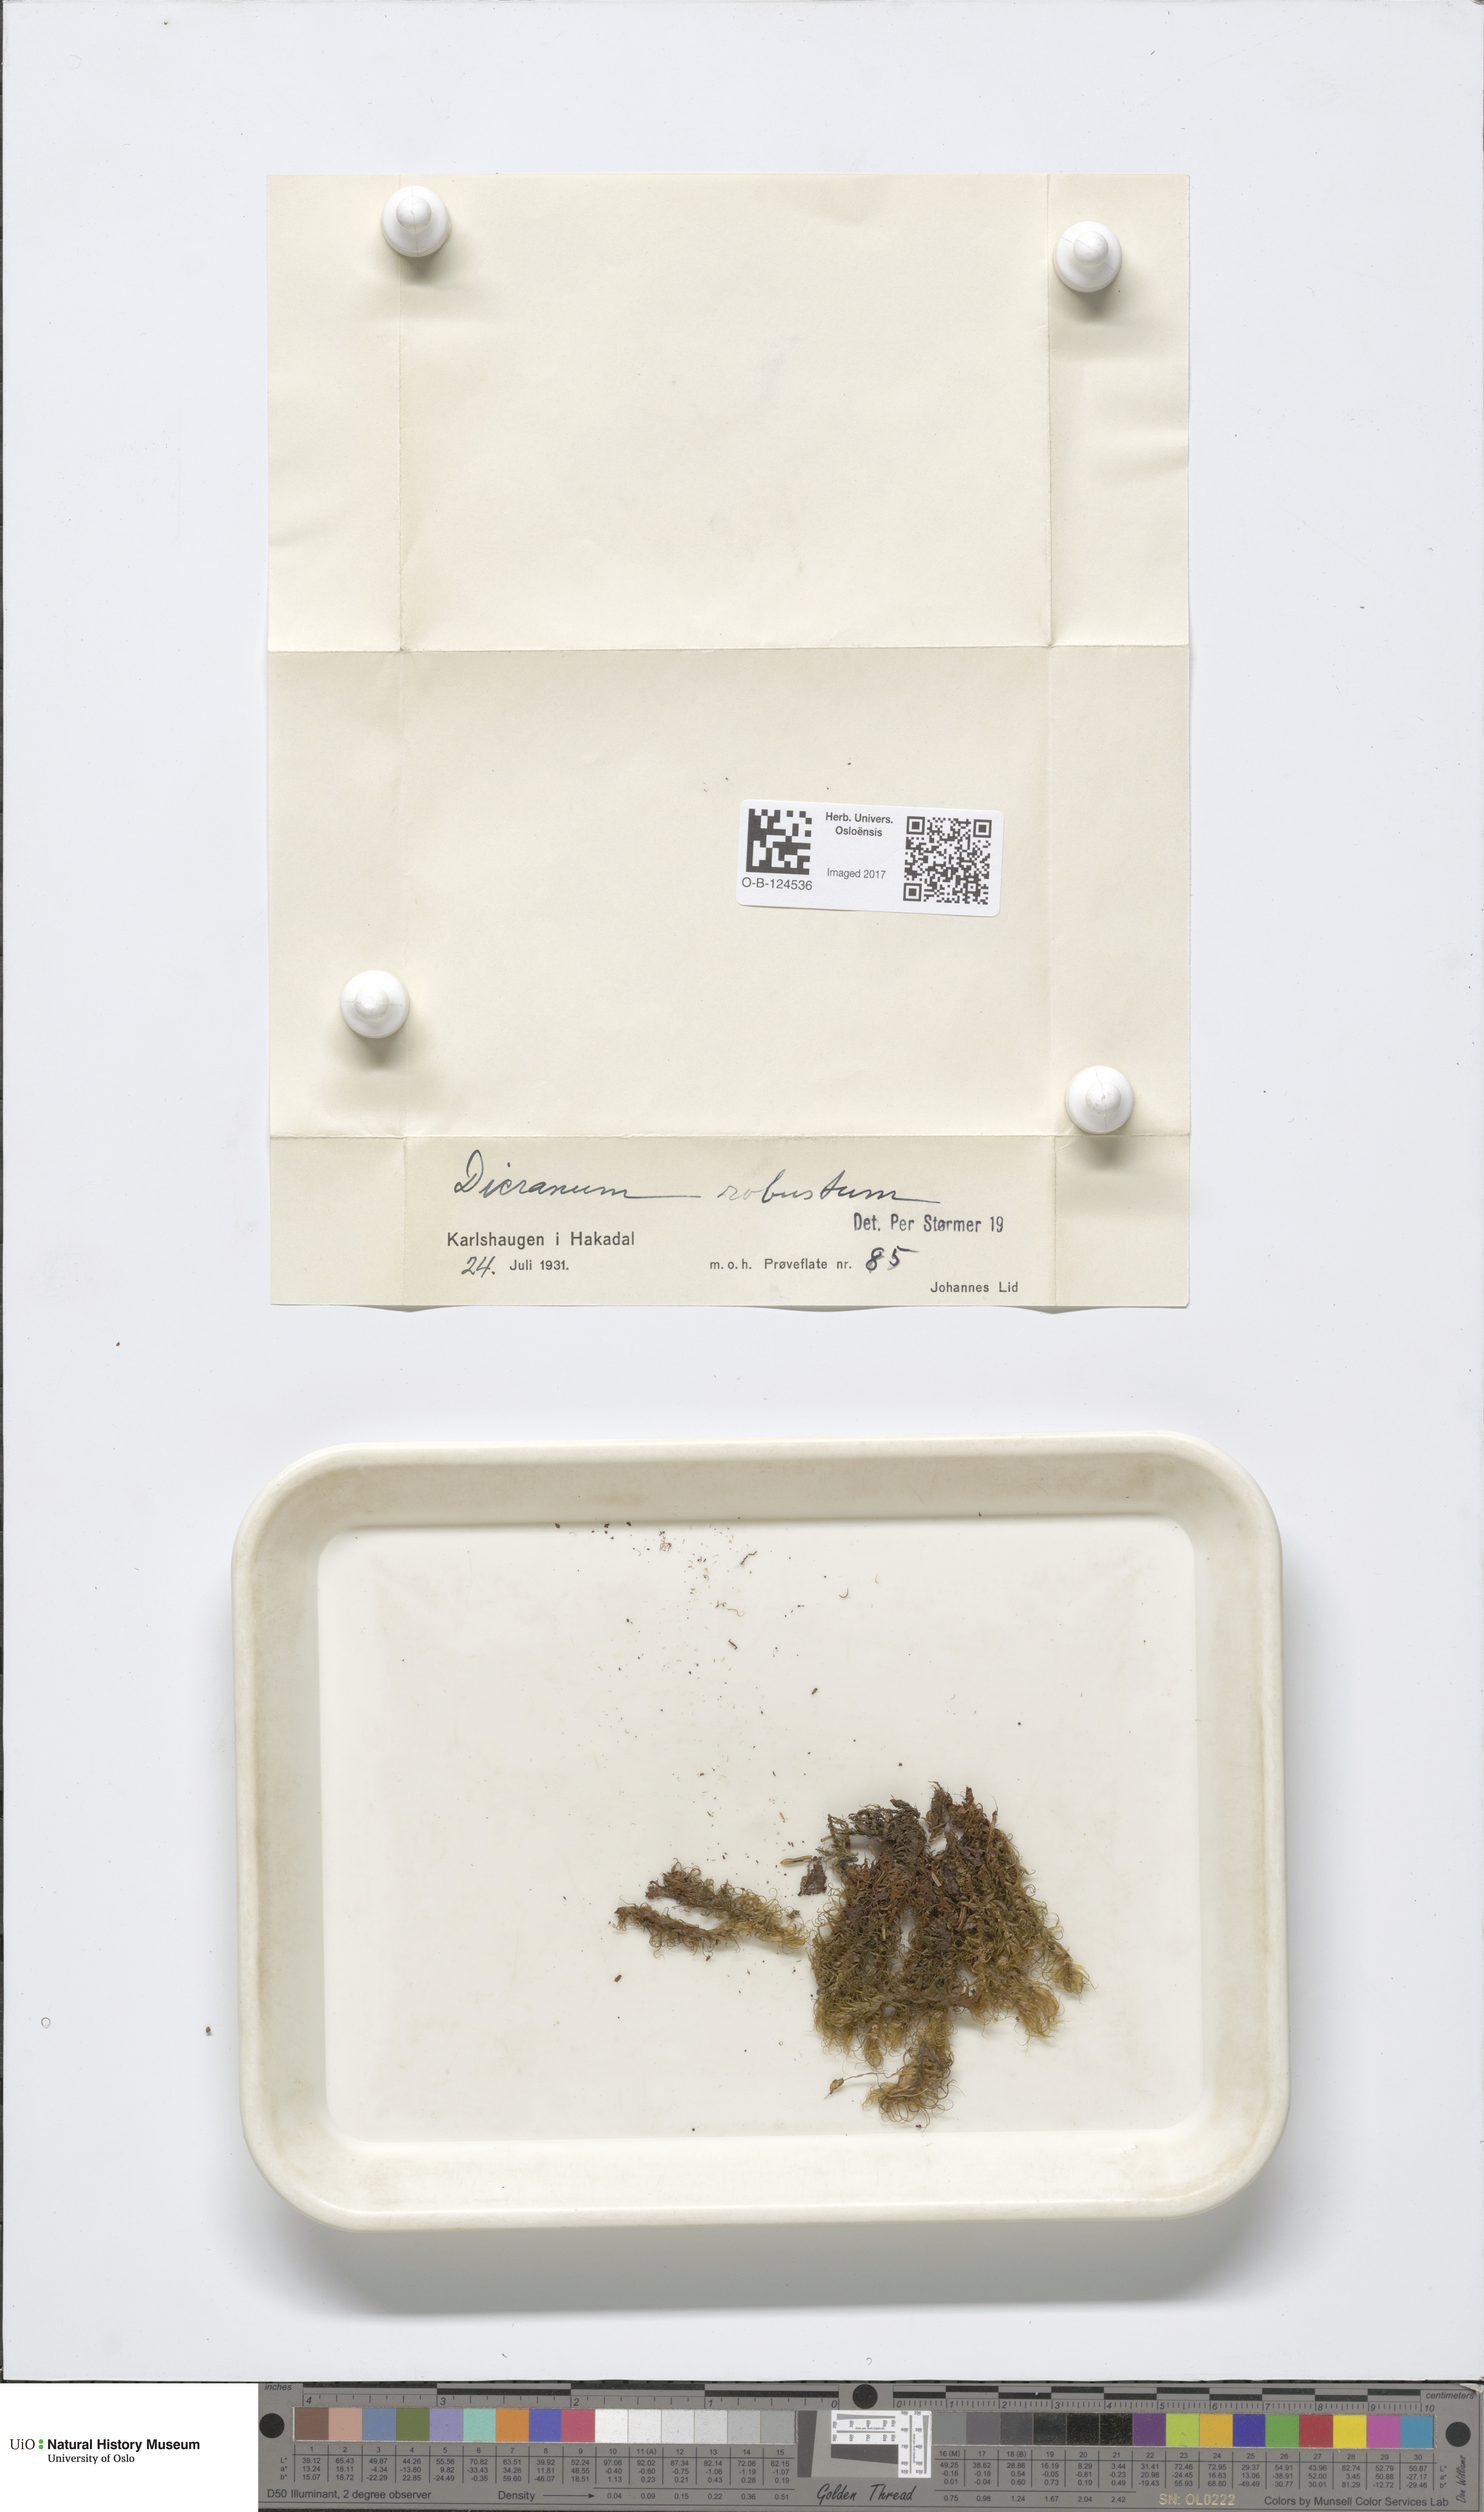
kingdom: Plantae
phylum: Bryophyta
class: Bryopsida
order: Dicranales
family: Dicranaceae
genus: Dicranum
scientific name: Dicranum drummondii
